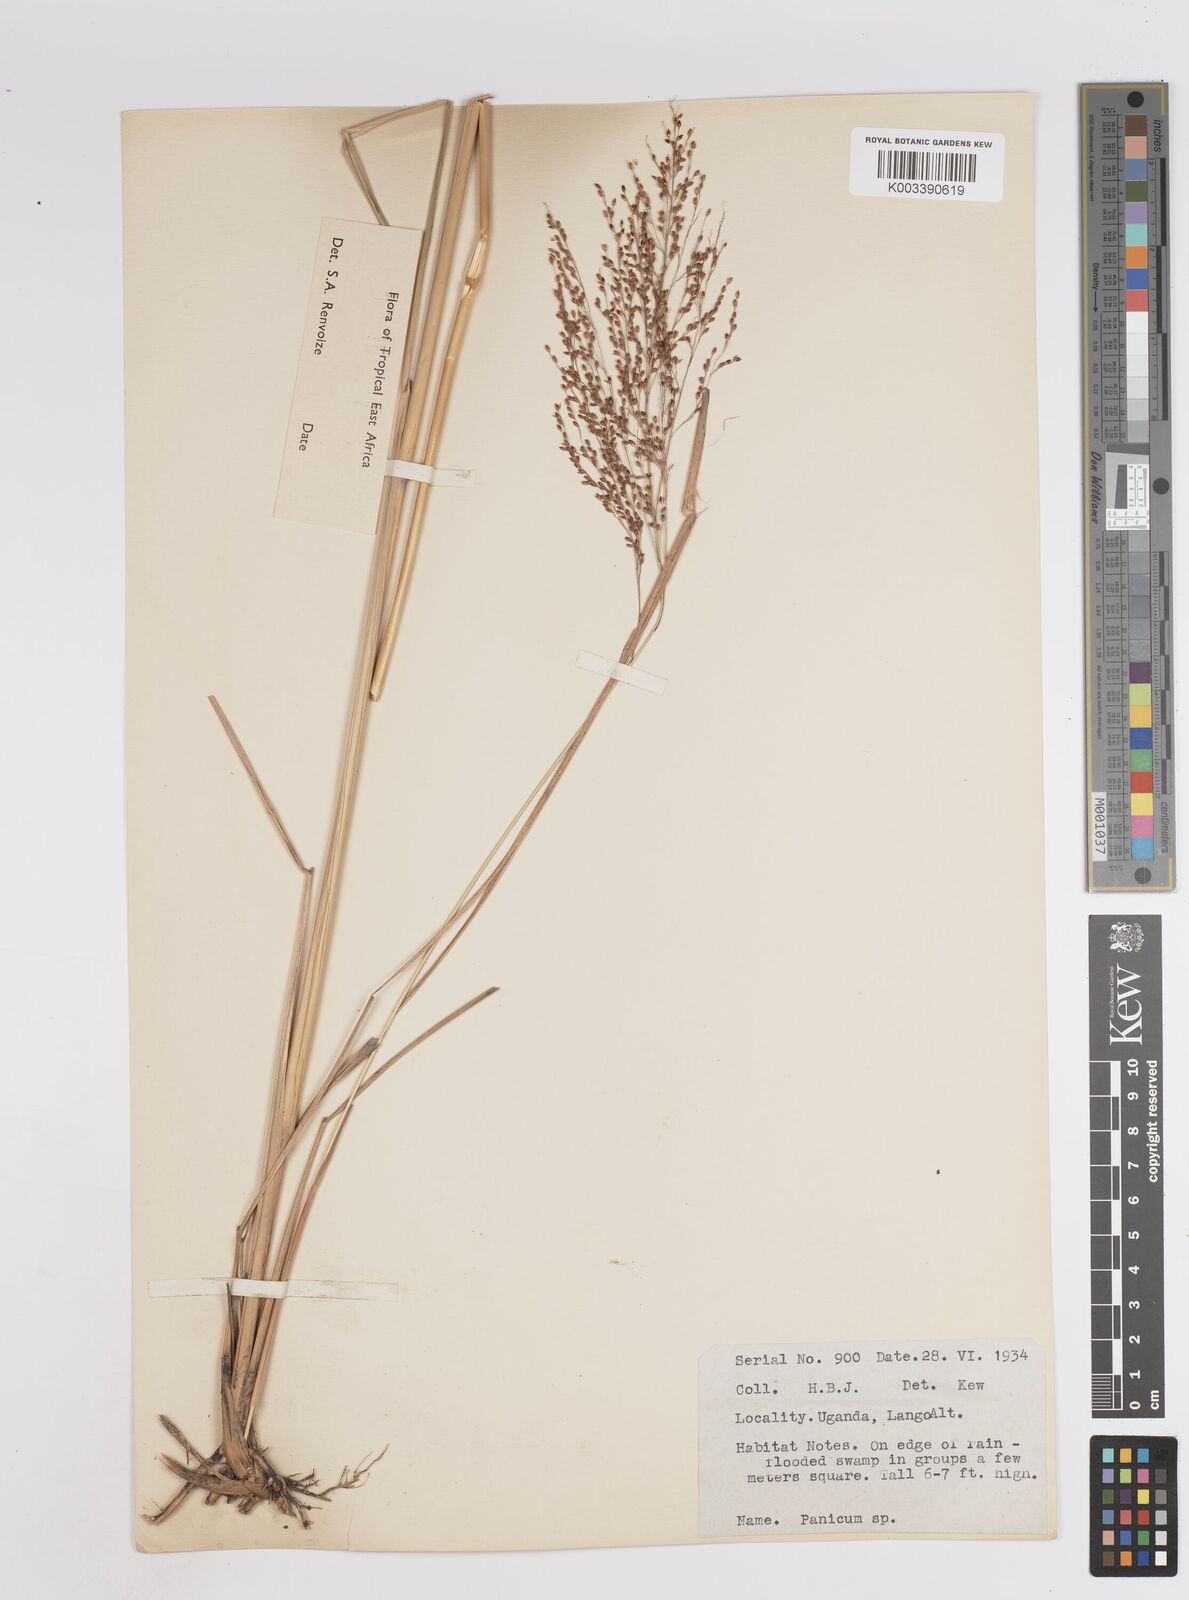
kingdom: Plantae
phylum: Tracheophyta
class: Liliopsida
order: Poales
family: Poaceae
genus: Panicum
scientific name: Panicum carneovaginatum
